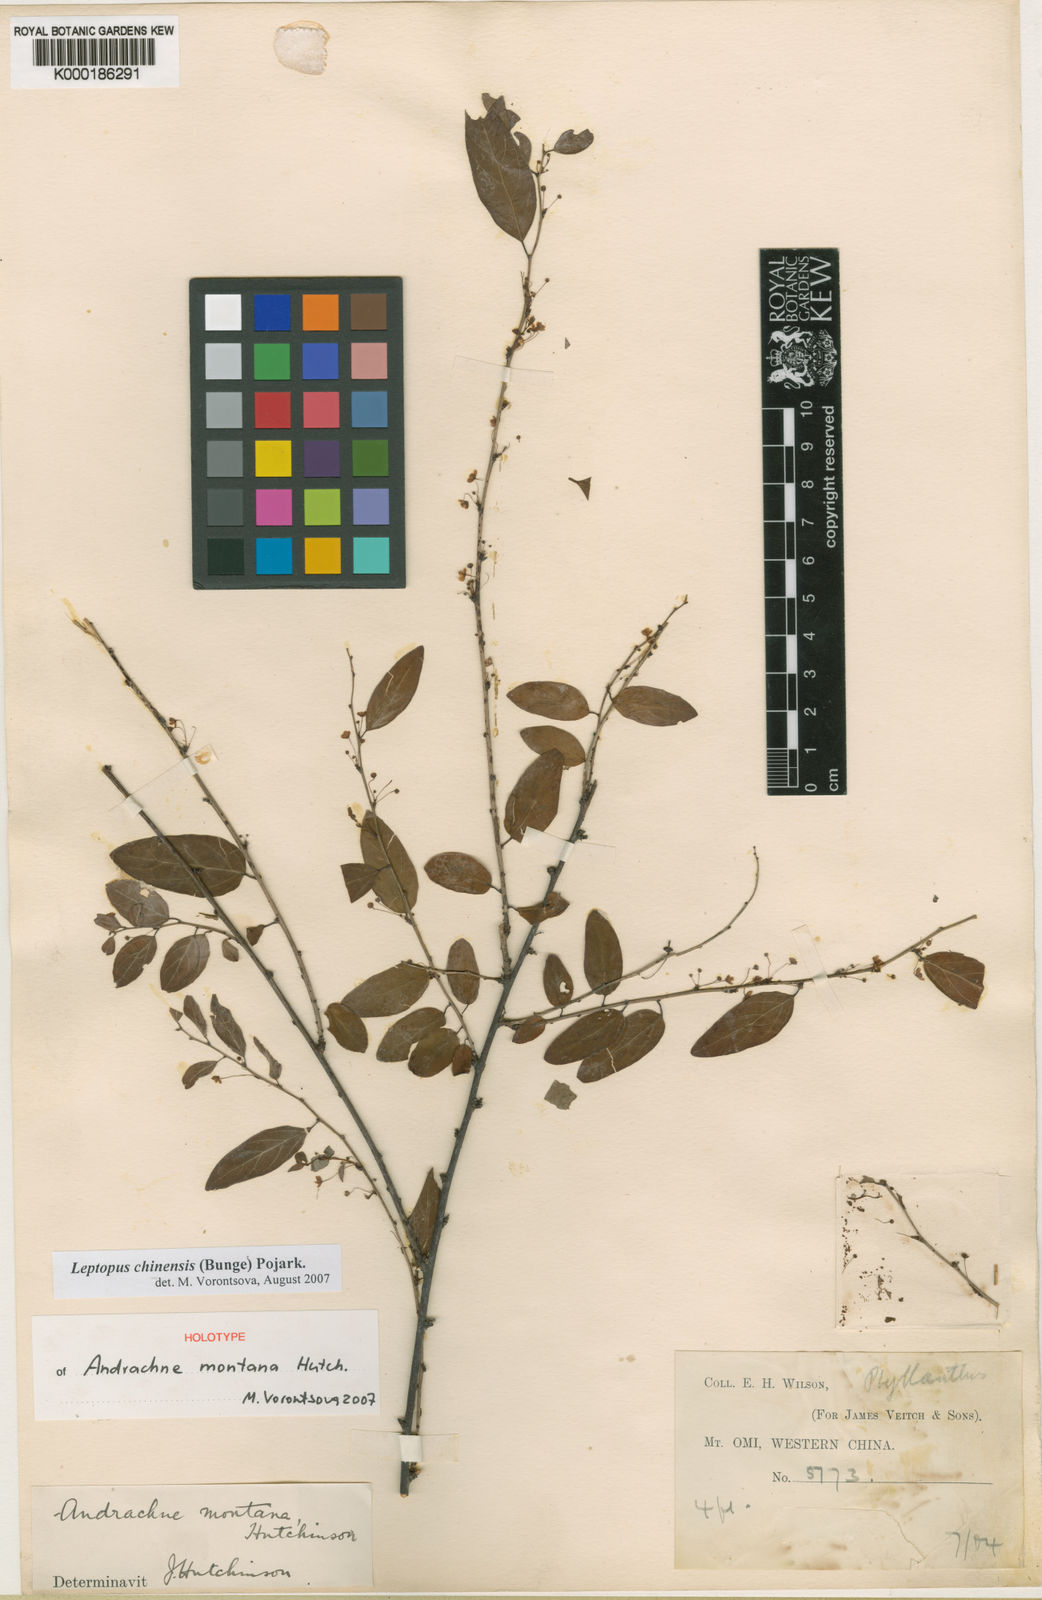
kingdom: Plantae
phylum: Tracheophyta
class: Magnoliopsida
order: Malpighiales
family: Phyllanthaceae
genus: Leptopus
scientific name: Leptopus chinensis
